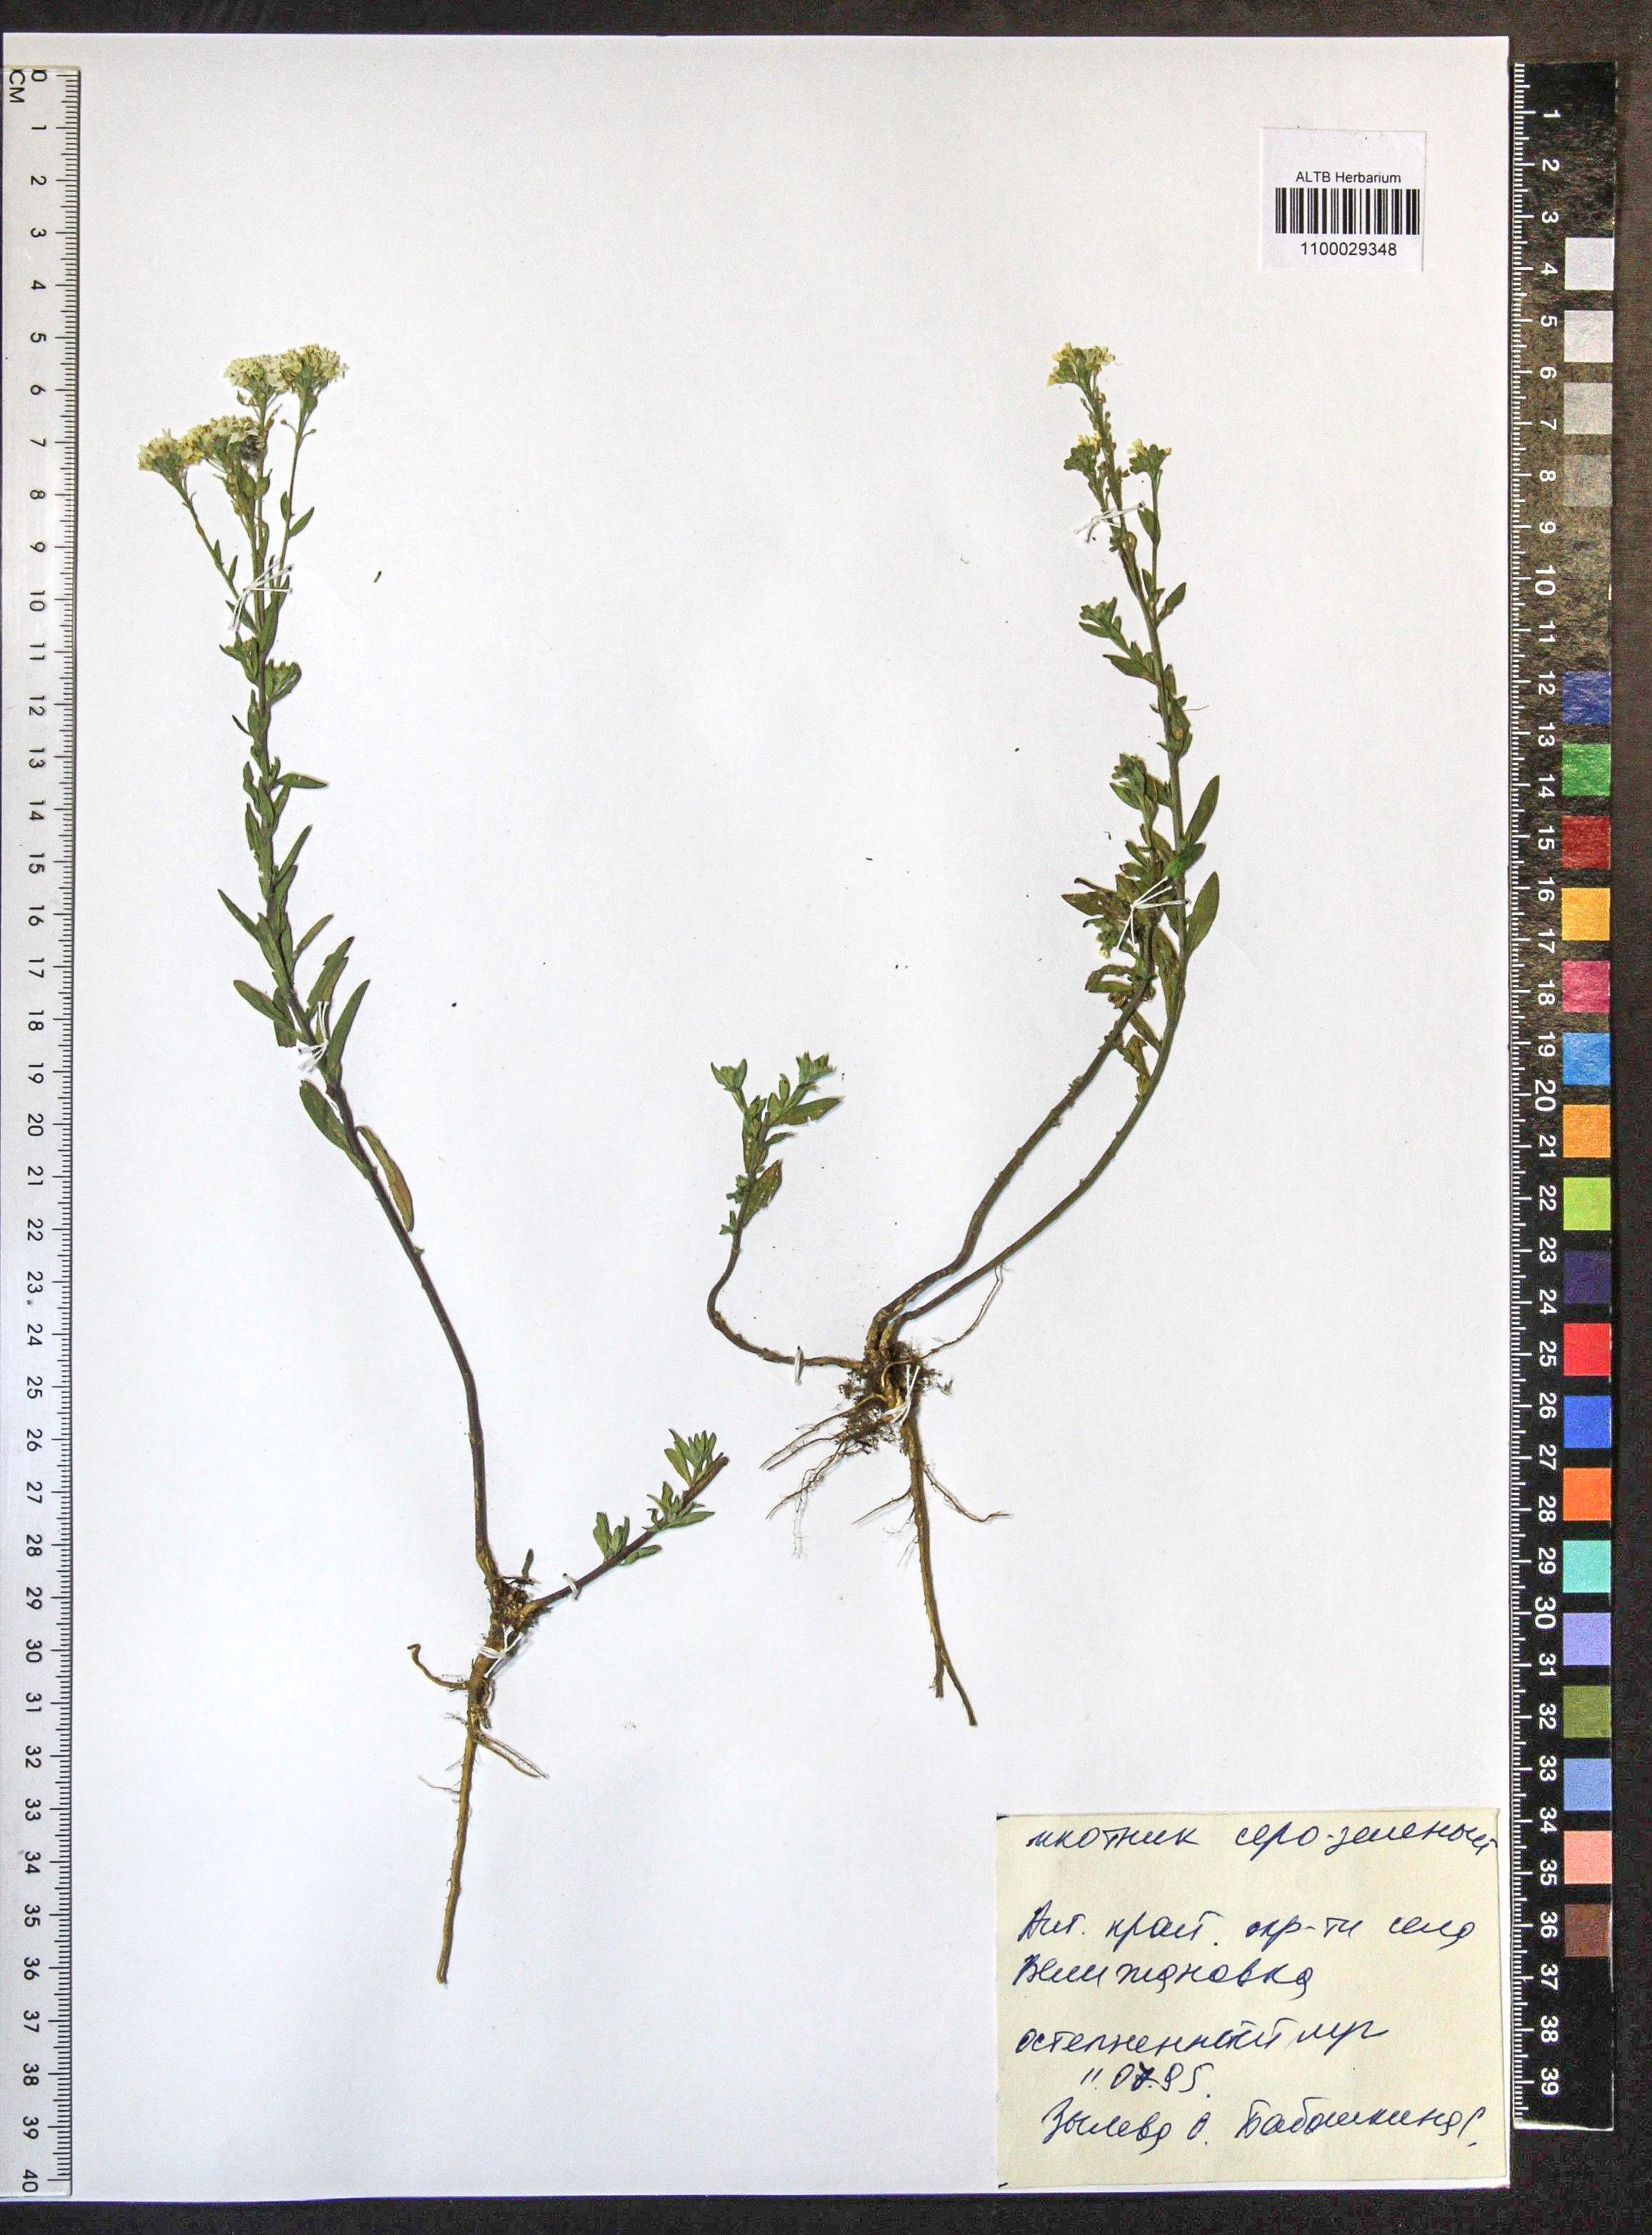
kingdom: Plantae
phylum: Tracheophyta
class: Magnoliopsida
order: Brassicales
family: Brassicaceae
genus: Berteroa
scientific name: Berteroa incana
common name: Hoary alison
